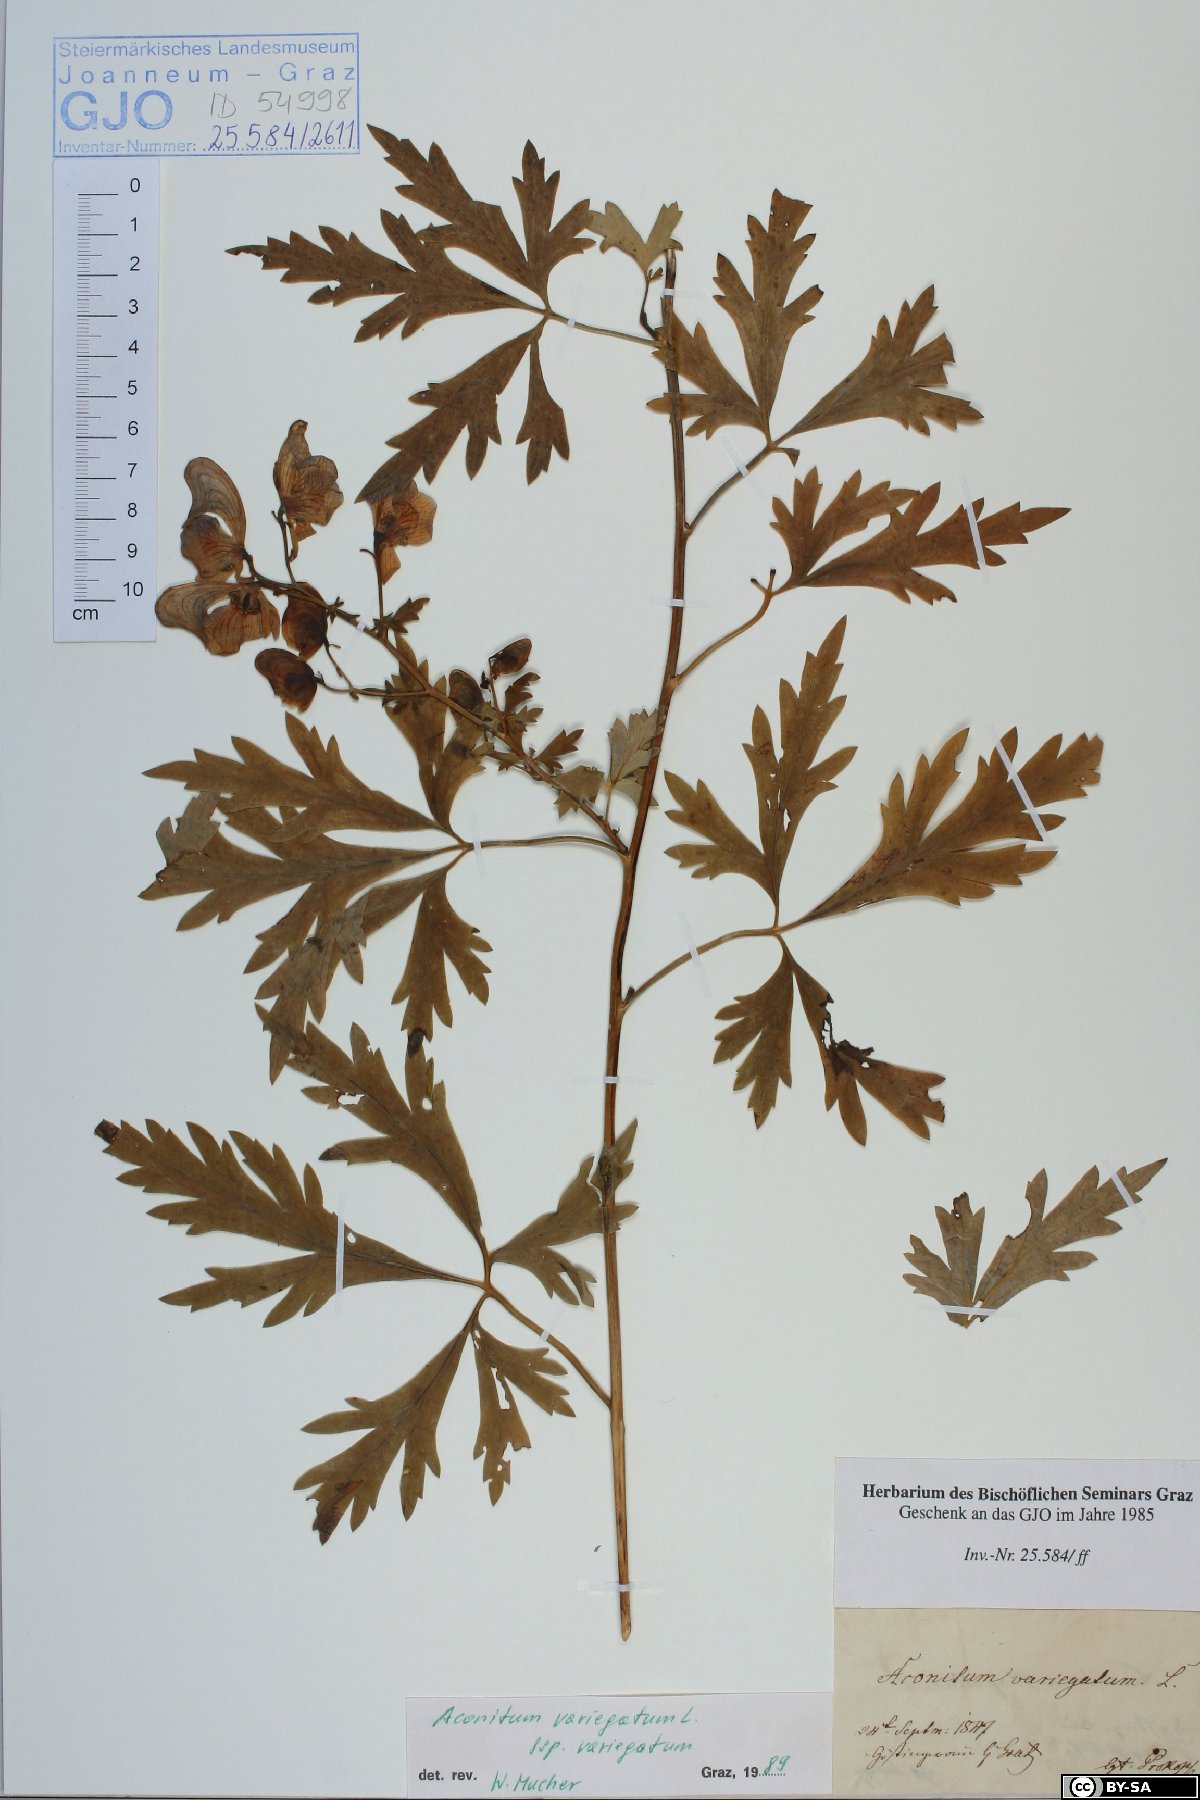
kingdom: Plantae
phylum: Tracheophyta
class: Magnoliopsida
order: Ranunculales
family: Ranunculaceae
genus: Aconitum
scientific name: Aconitum variegatum
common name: Manchurian monkshood
